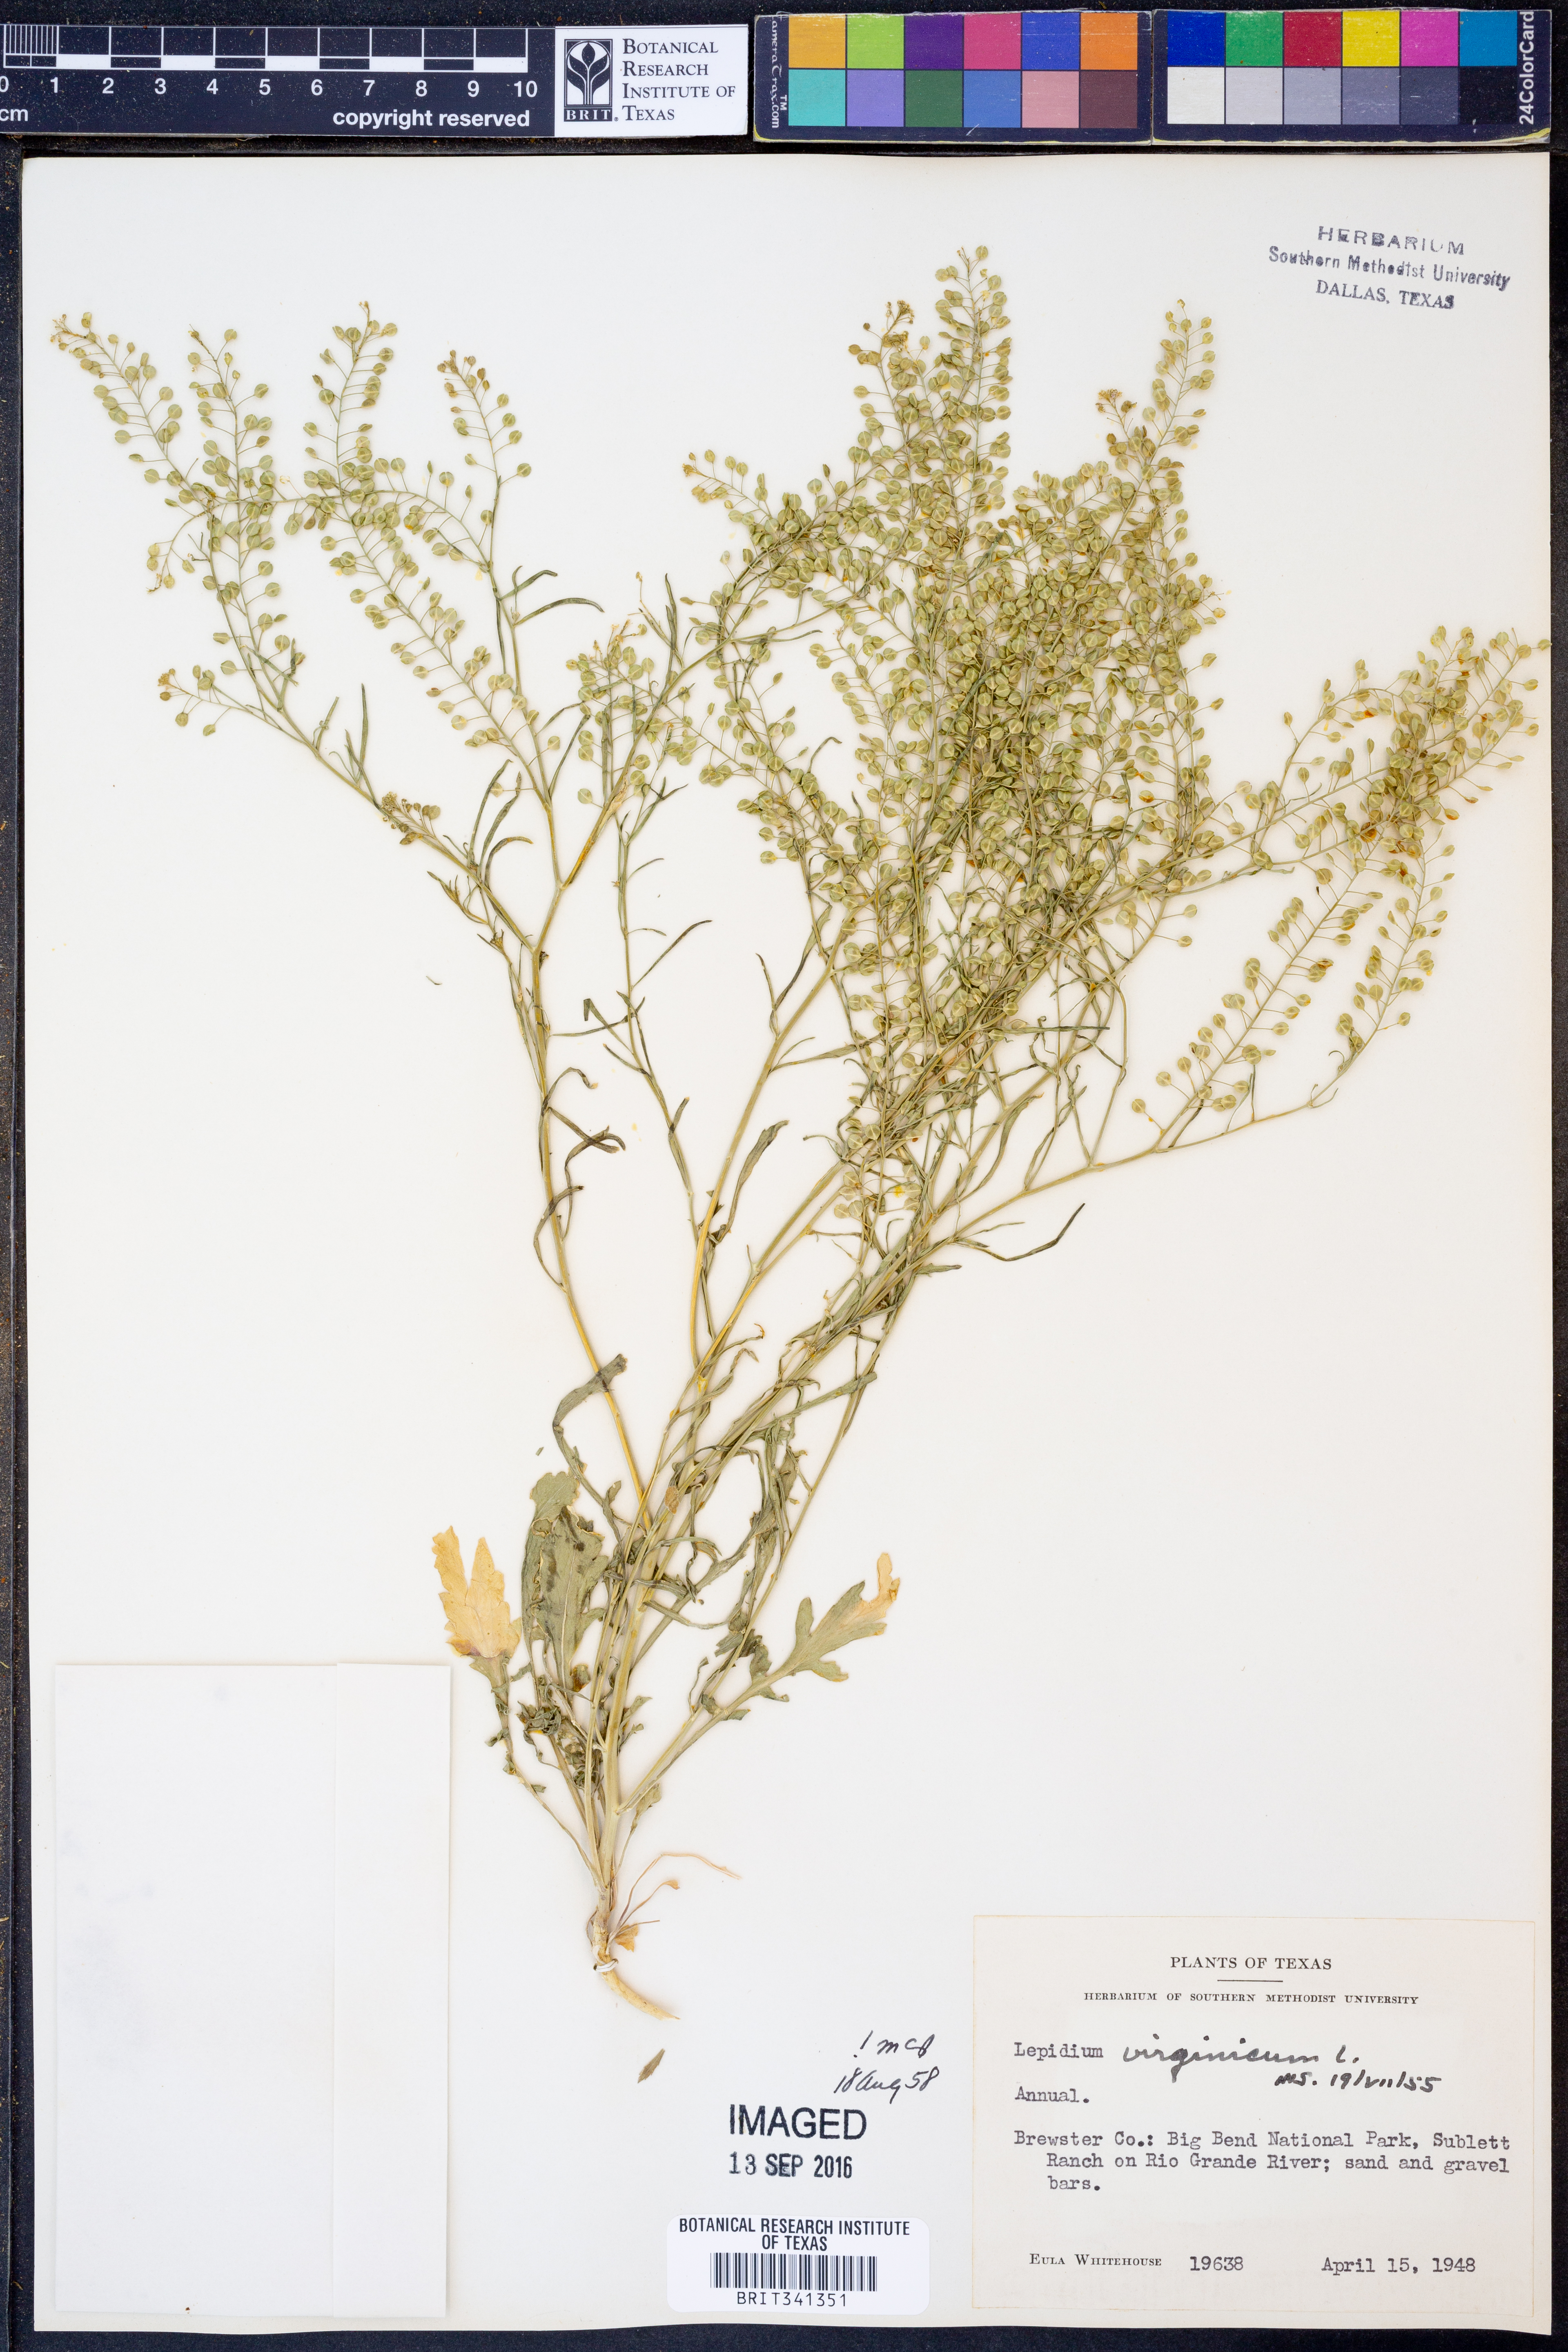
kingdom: Plantae
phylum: Tracheophyta
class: Magnoliopsida
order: Brassicales
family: Brassicaceae
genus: Lepidium
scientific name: Lepidium virginicum
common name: Least pepperwort
